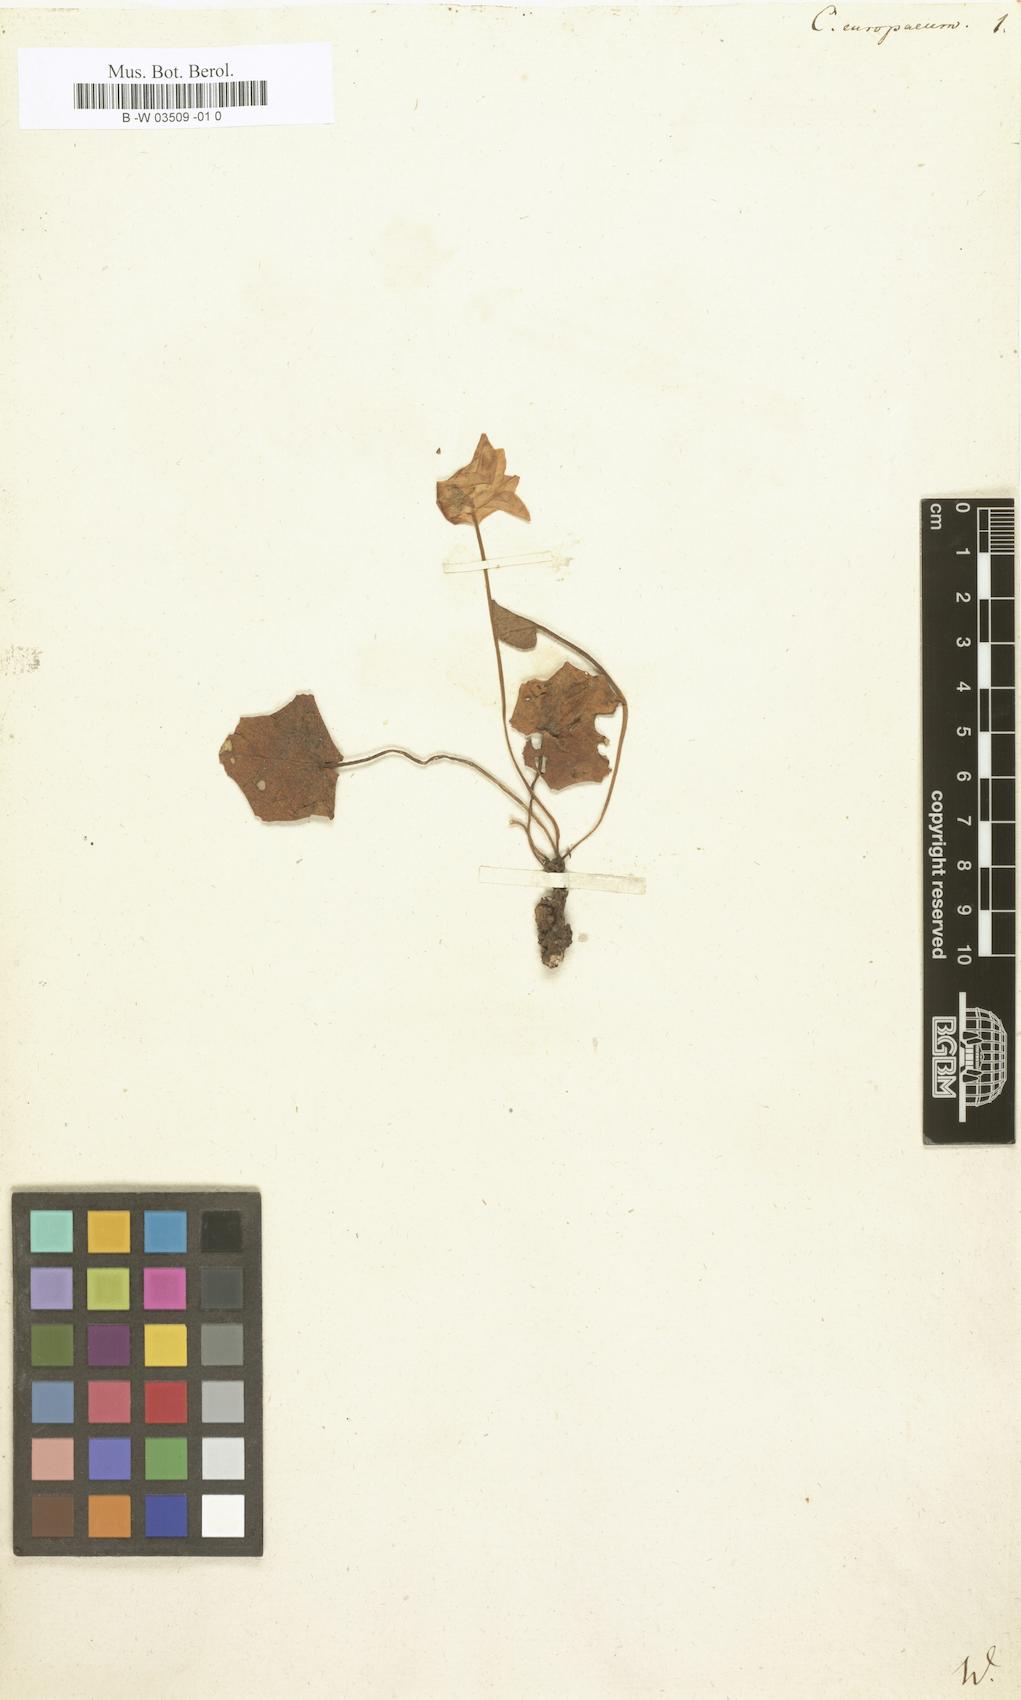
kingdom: Plantae
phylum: Tracheophyta
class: Magnoliopsida
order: Ericales
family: Primulaceae
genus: Cyclamen
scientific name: Cyclamen europaeum
